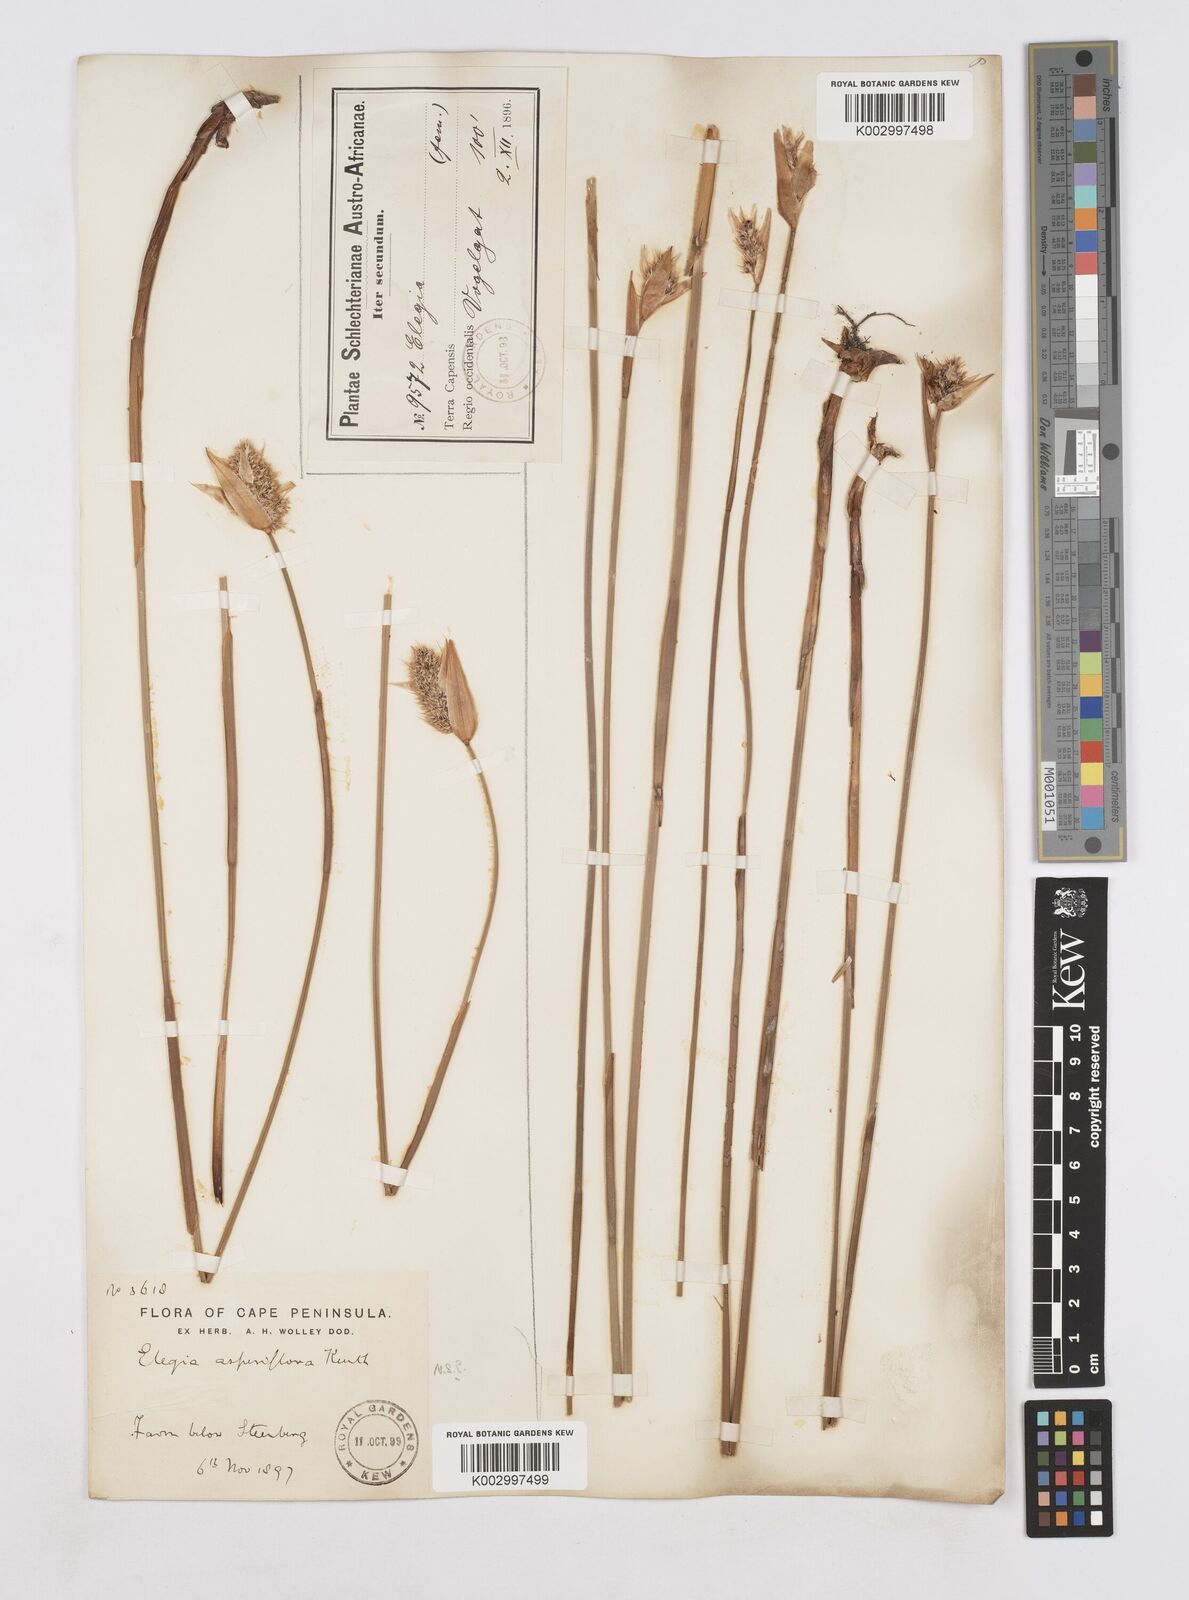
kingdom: Plantae
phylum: Tracheophyta
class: Liliopsida
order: Poales
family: Restionaceae
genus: Elegia
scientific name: Elegia asperiflora
